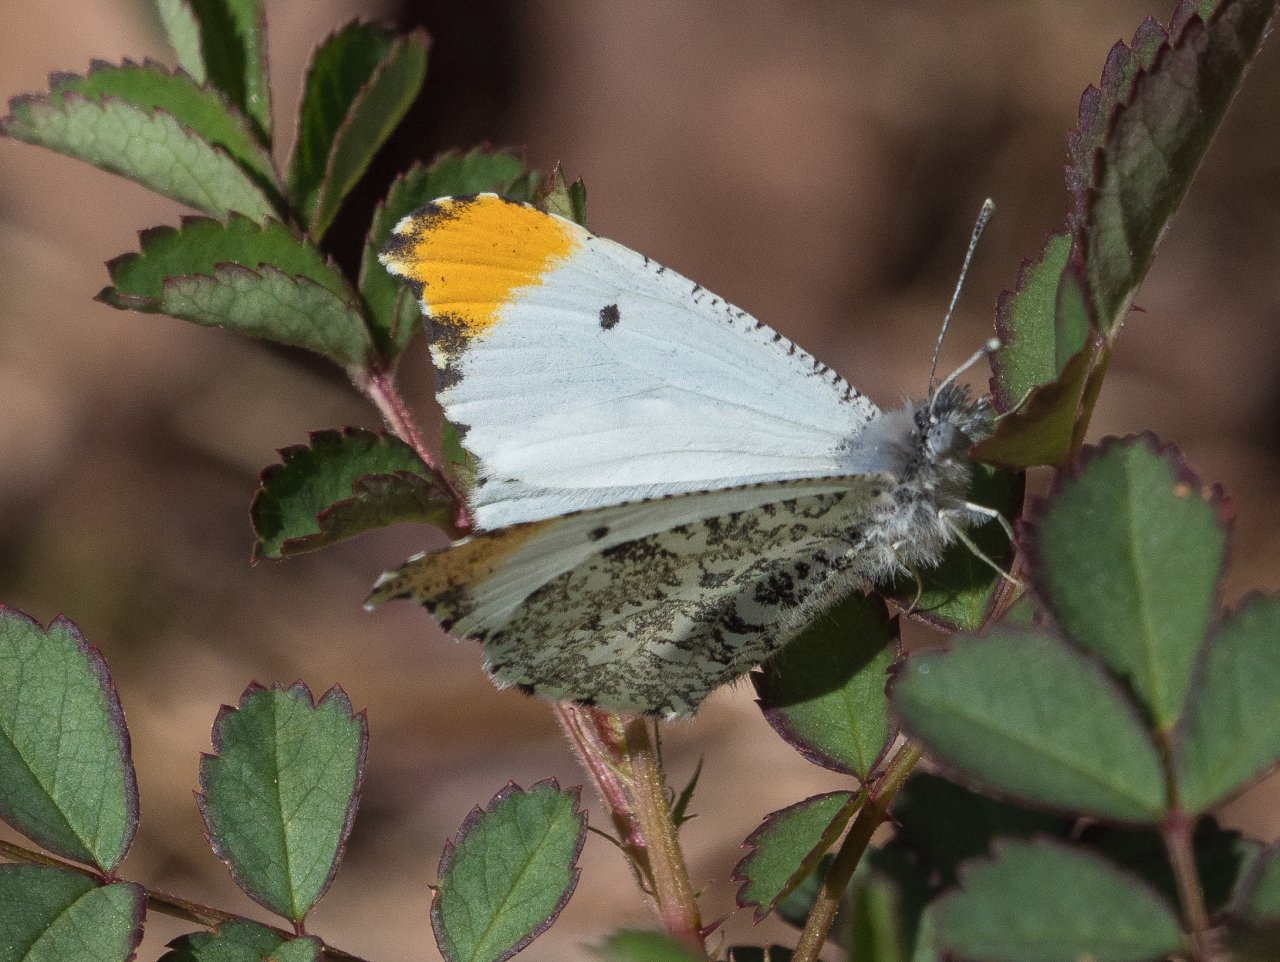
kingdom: Animalia
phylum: Arthropoda
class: Insecta
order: Lepidoptera
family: Pieridae
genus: Anthocharis
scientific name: Anthocharis midea
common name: Falcate Orangetip
